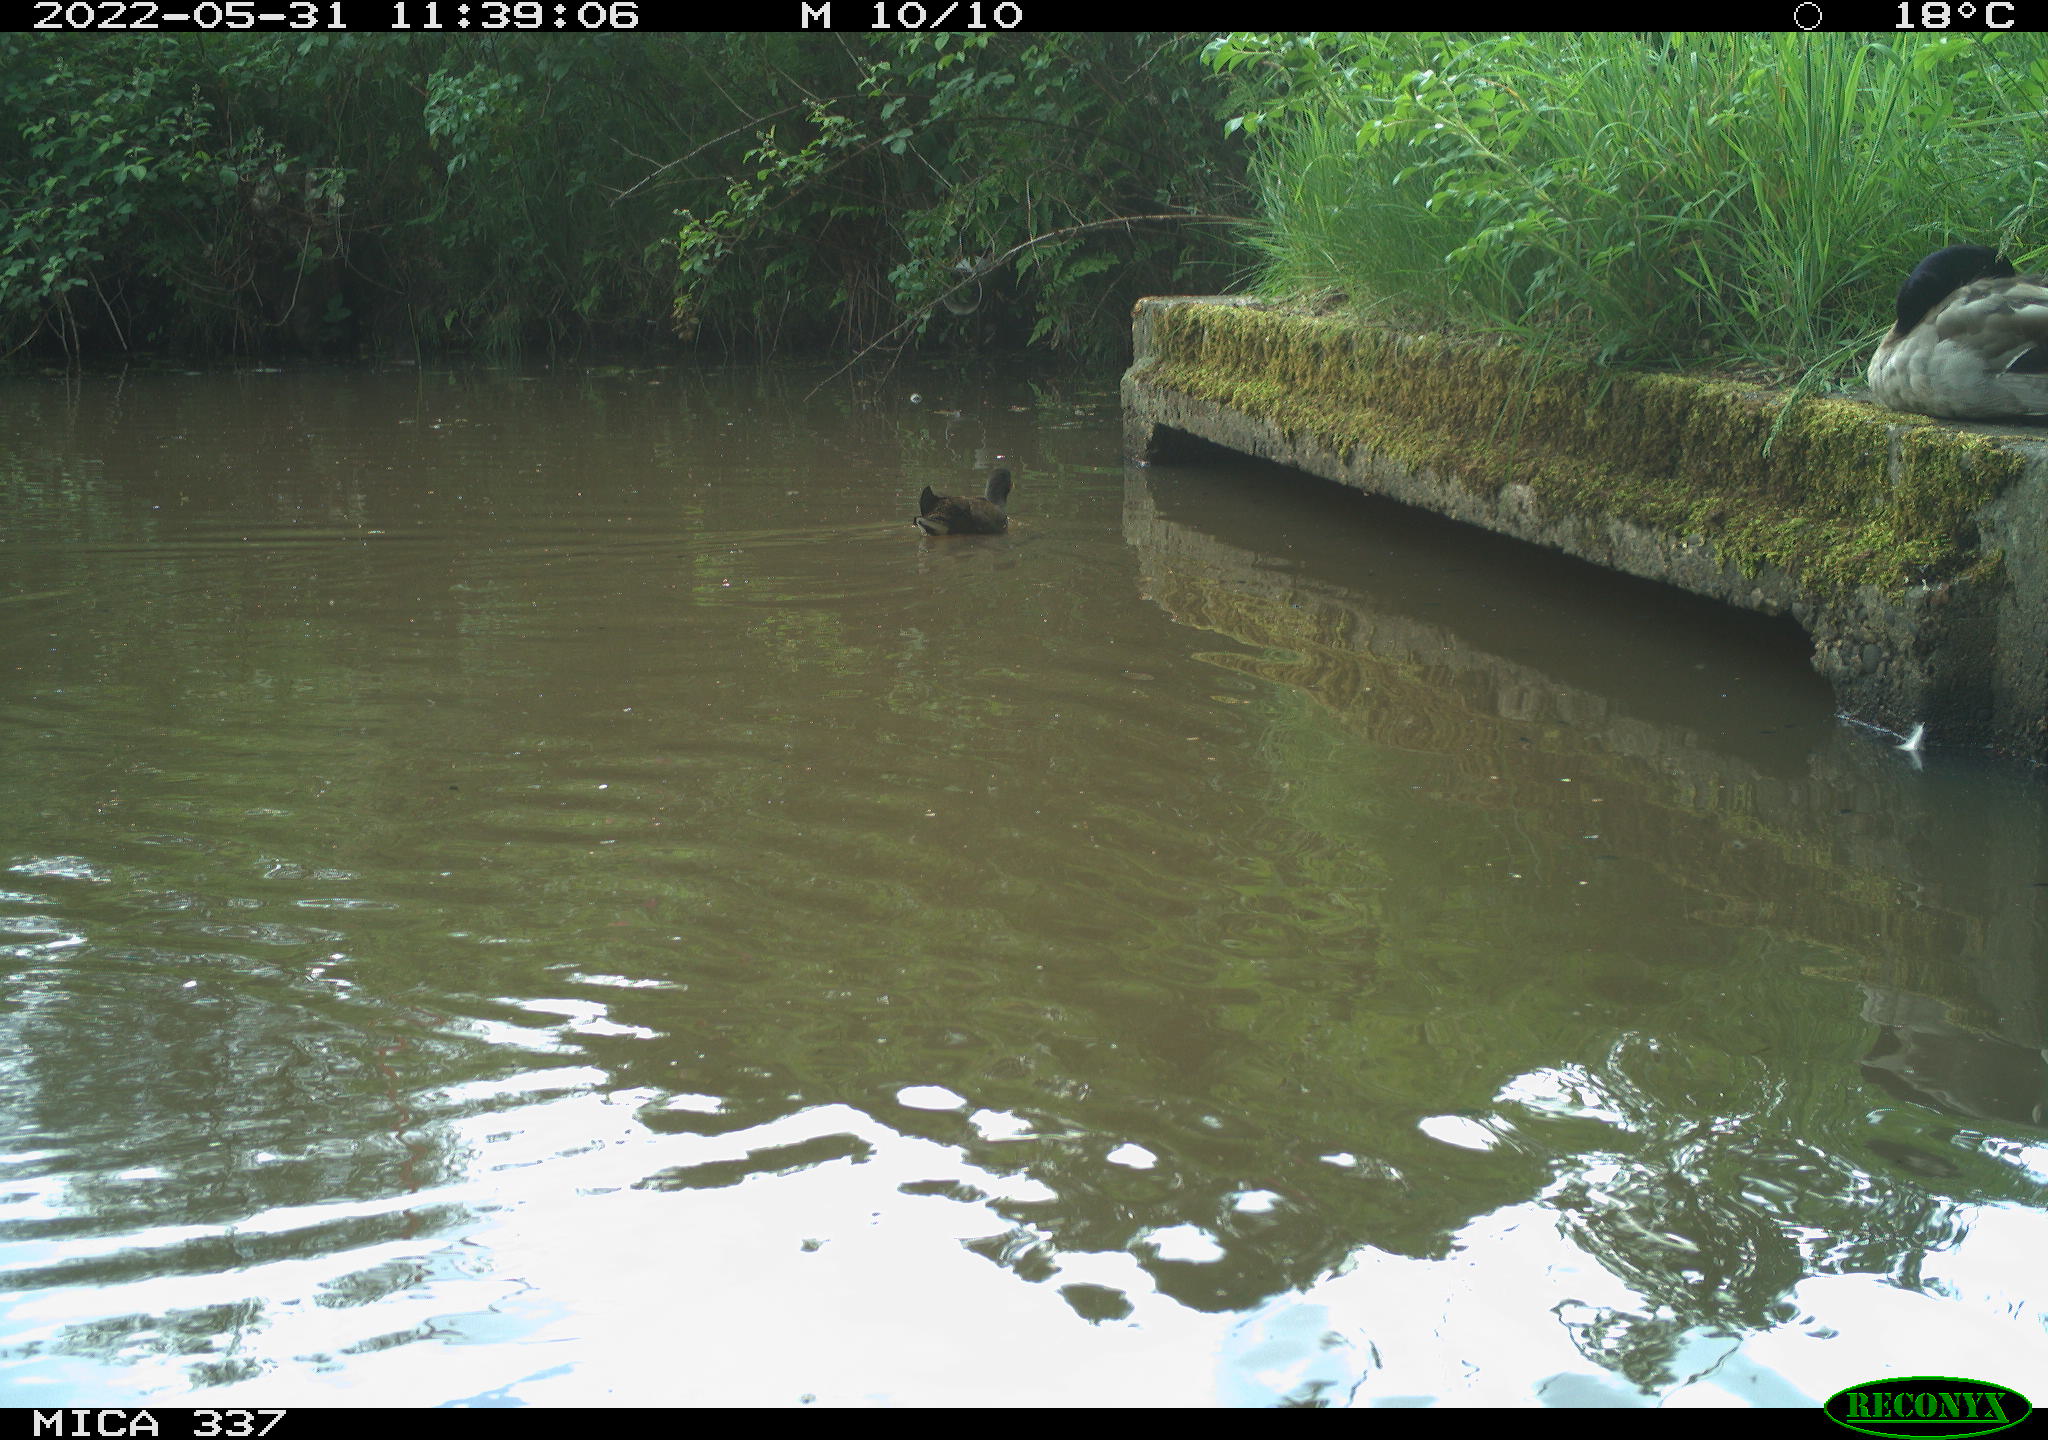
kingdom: Animalia
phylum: Chordata
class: Aves
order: Gruiformes
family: Rallidae
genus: Gallinula
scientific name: Gallinula chloropus
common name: Common moorhen
